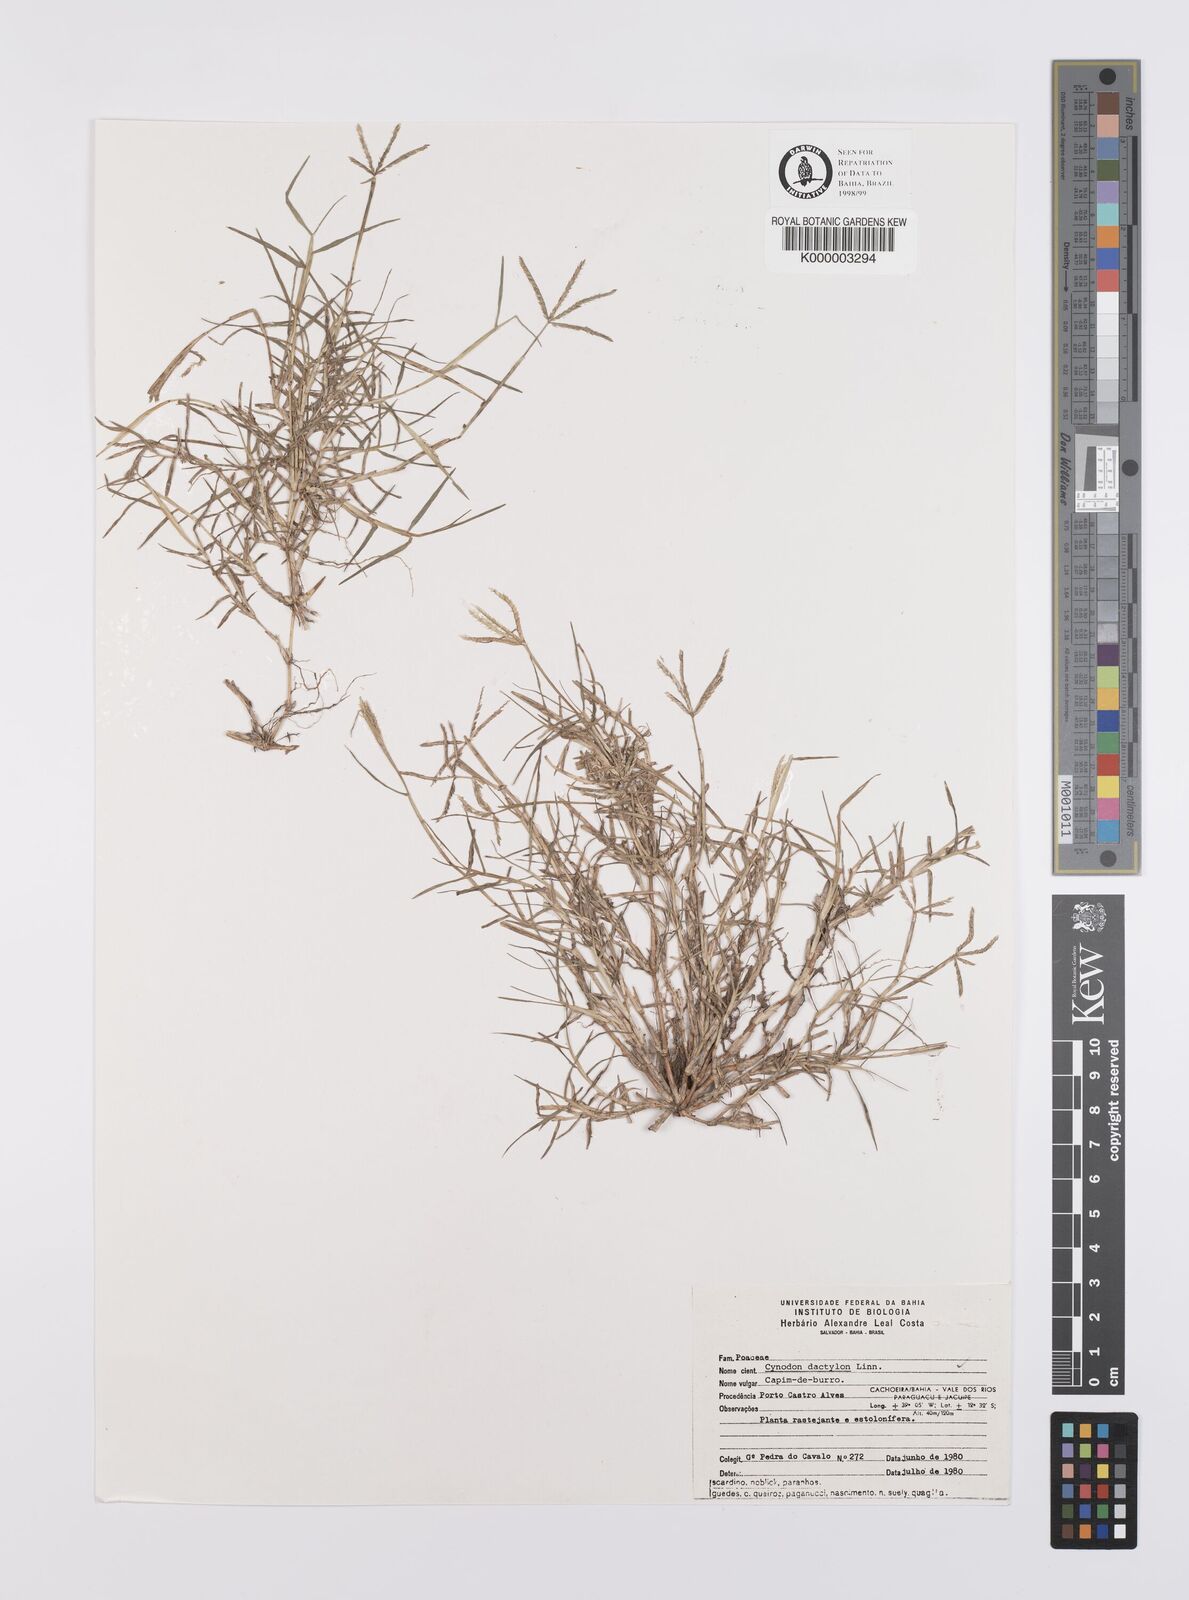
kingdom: Plantae
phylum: Tracheophyta
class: Liliopsida
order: Poales
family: Poaceae
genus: Cynodon
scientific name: Cynodon dactylon
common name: Bermuda grass
